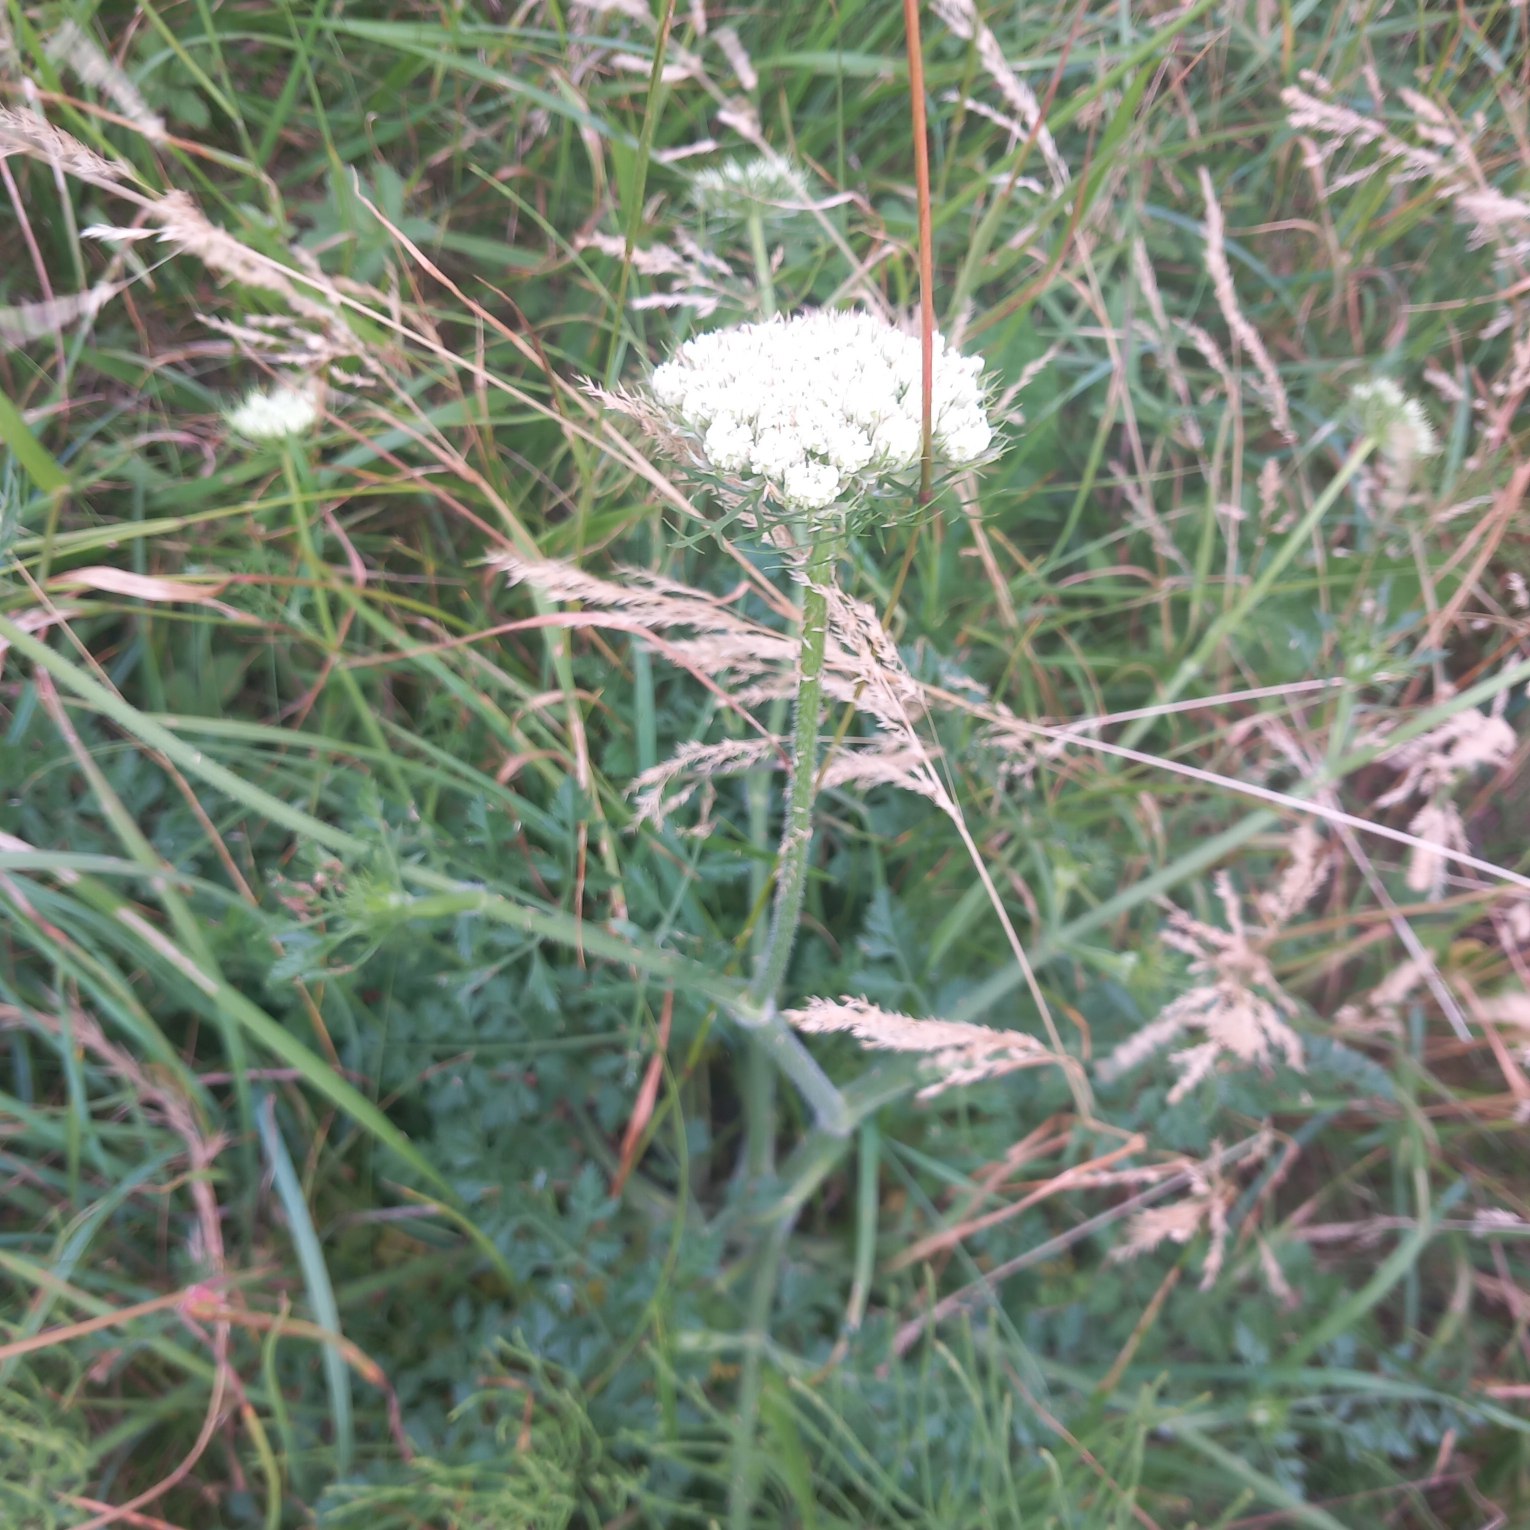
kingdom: Plantae
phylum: Tracheophyta
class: Magnoliopsida
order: Apiales
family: Apiaceae
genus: Daucus
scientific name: Daucus carota
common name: Vild gulerod
